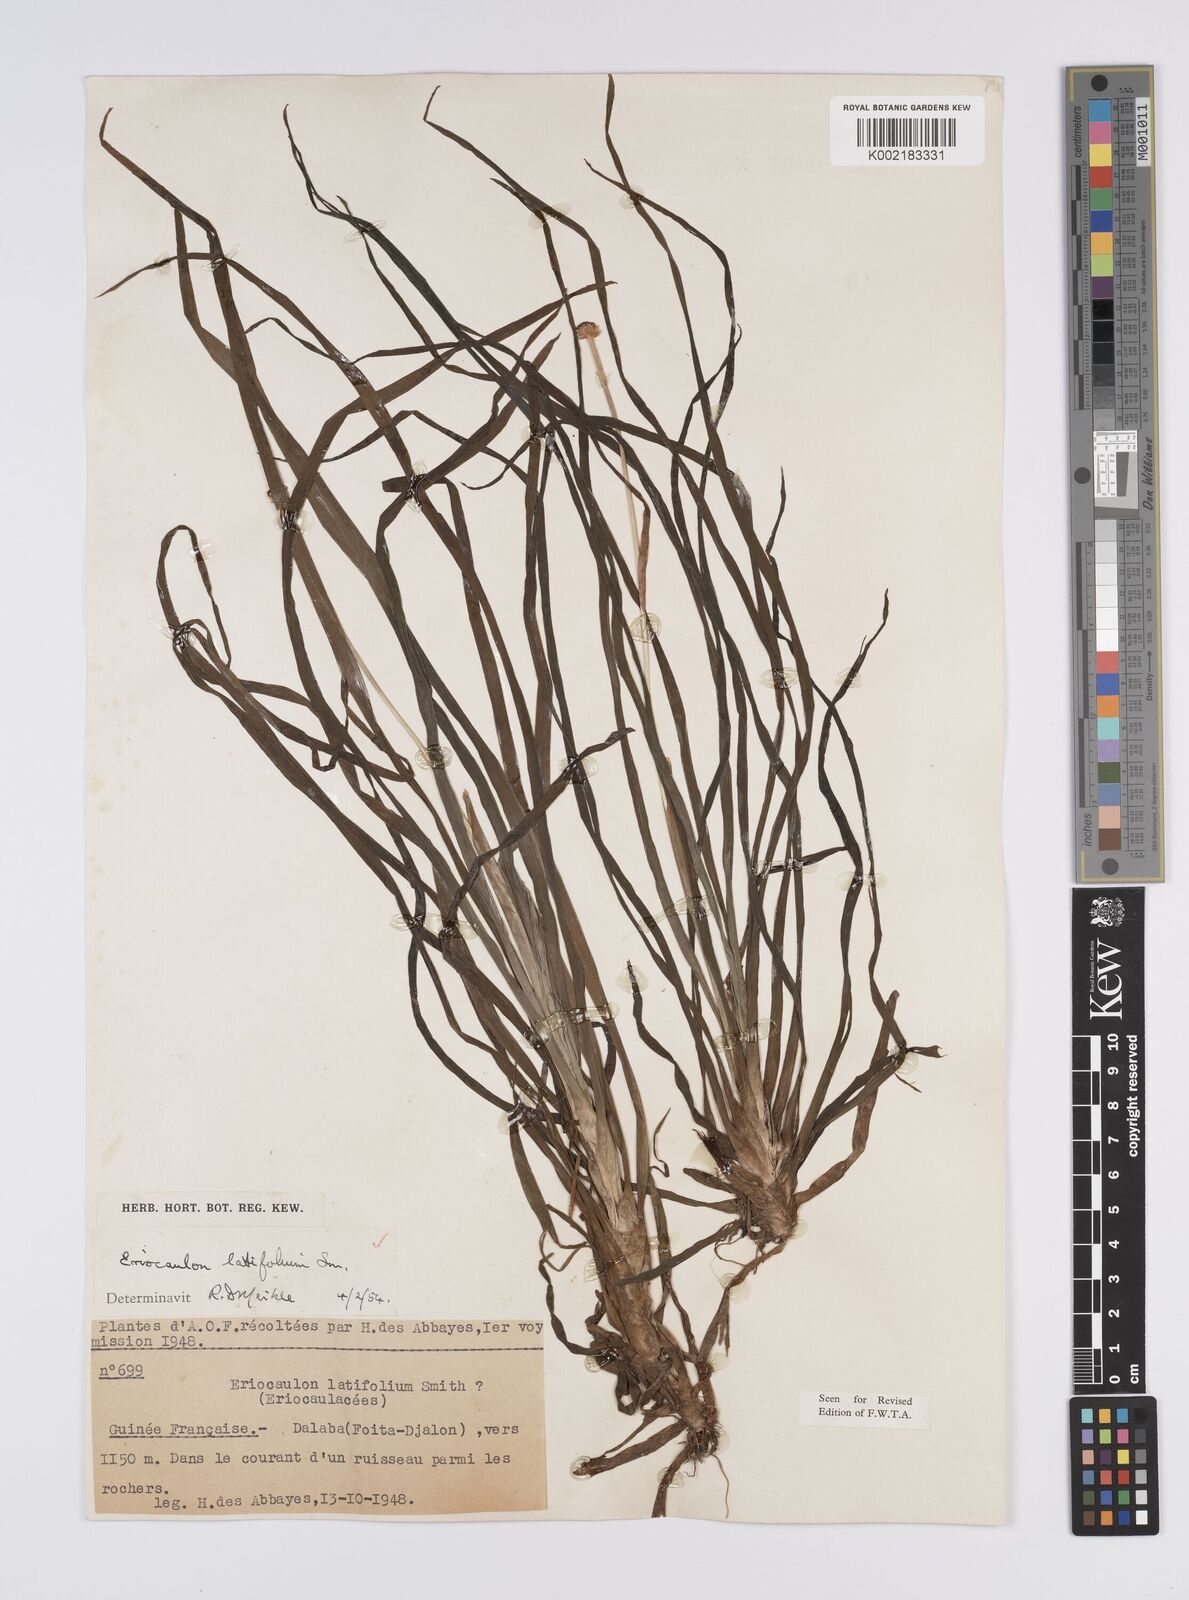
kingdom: Plantae
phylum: Tracheophyta
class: Liliopsida
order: Poales
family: Eriocaulaceae
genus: Eriocaulon
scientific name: Eriocaulon latifolium
